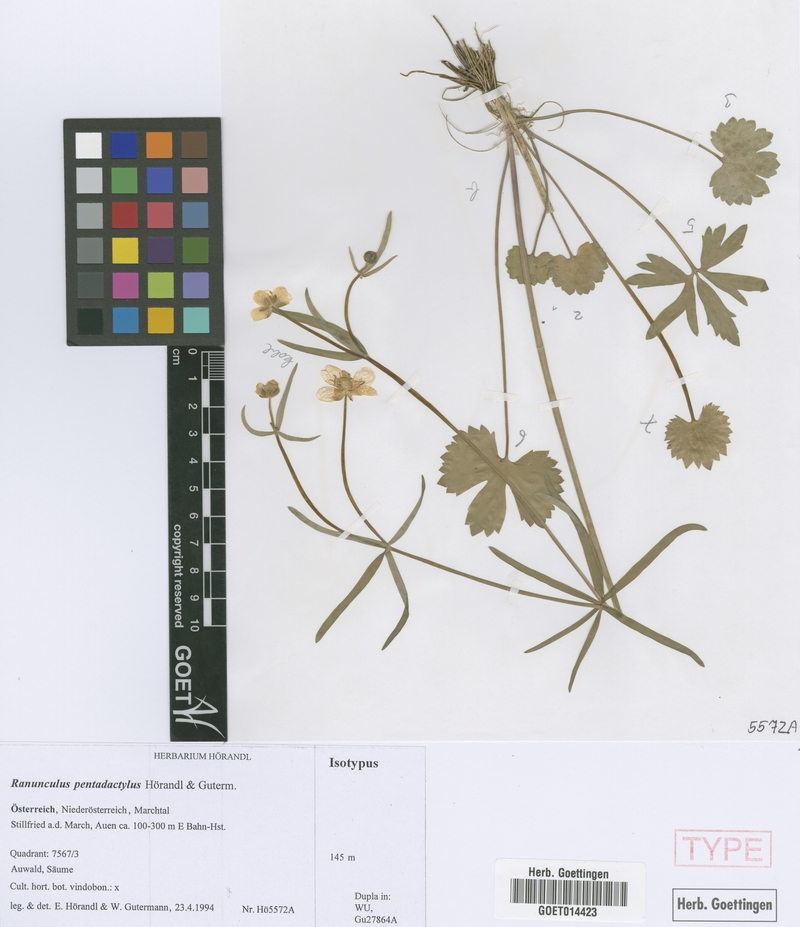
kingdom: Plantae
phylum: Tracheophyta
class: Magnoliopsida
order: Ranunculales
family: Ranunculaceae
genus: Ranunculus
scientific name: Ranunculus pentadactylus
